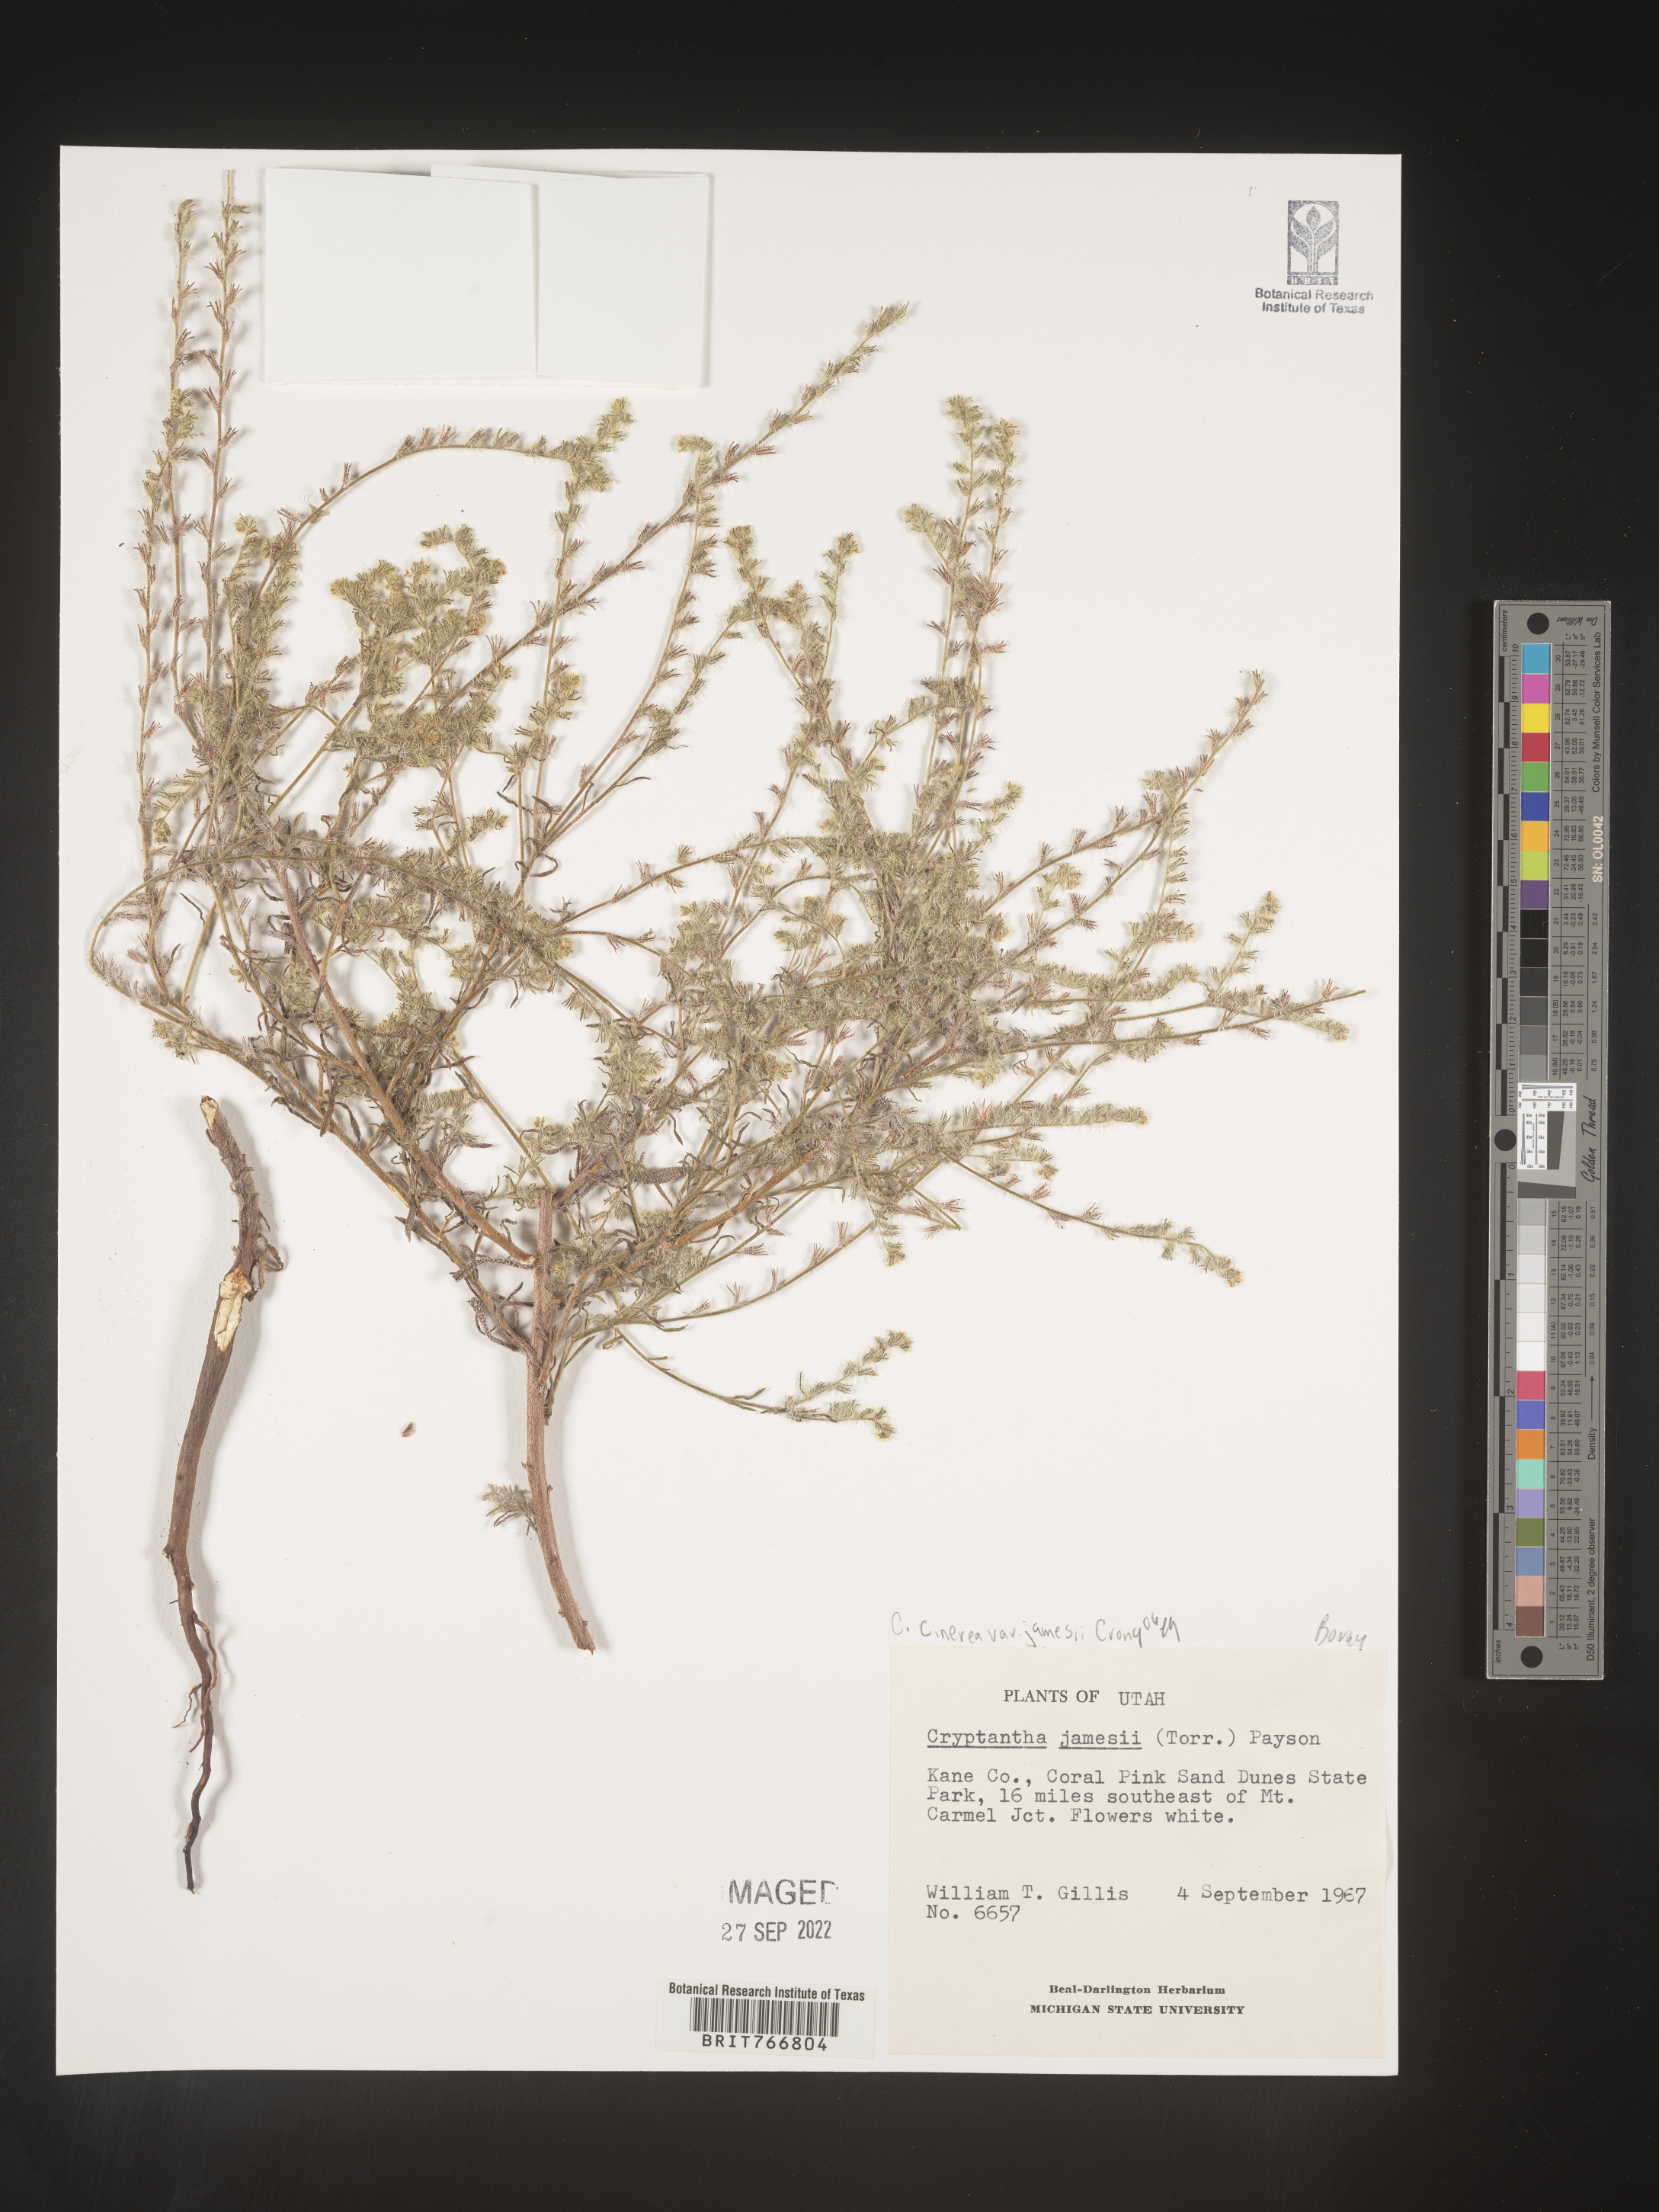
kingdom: Plantae
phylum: Tracheophyta
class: Magnoliopsida
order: Boraginales
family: Boraginaceae
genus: Oreocarya
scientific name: Oreocarya suffruticosa
